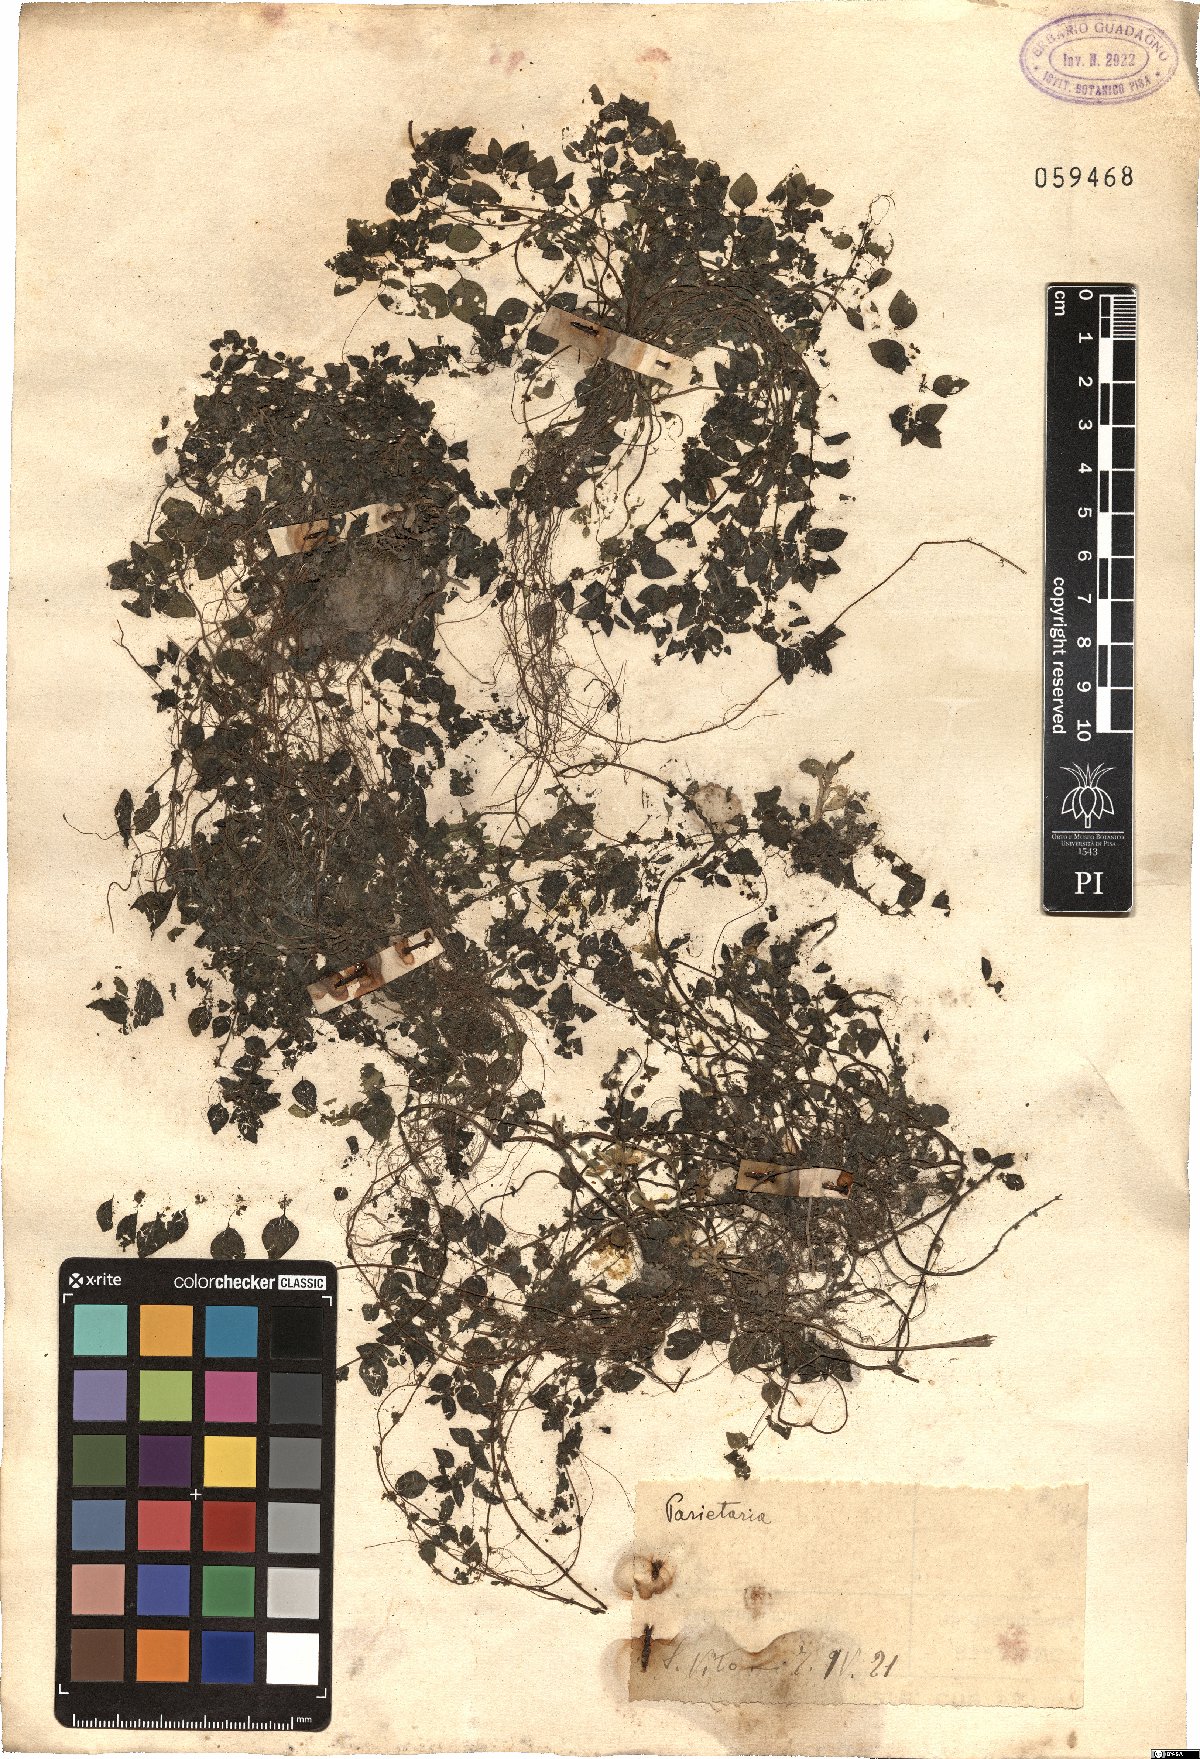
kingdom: Plantae
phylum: Tracheophyta
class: Magnoliopsida
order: Rosales
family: Urticaceae
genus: Parietaria
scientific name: Parietaria
